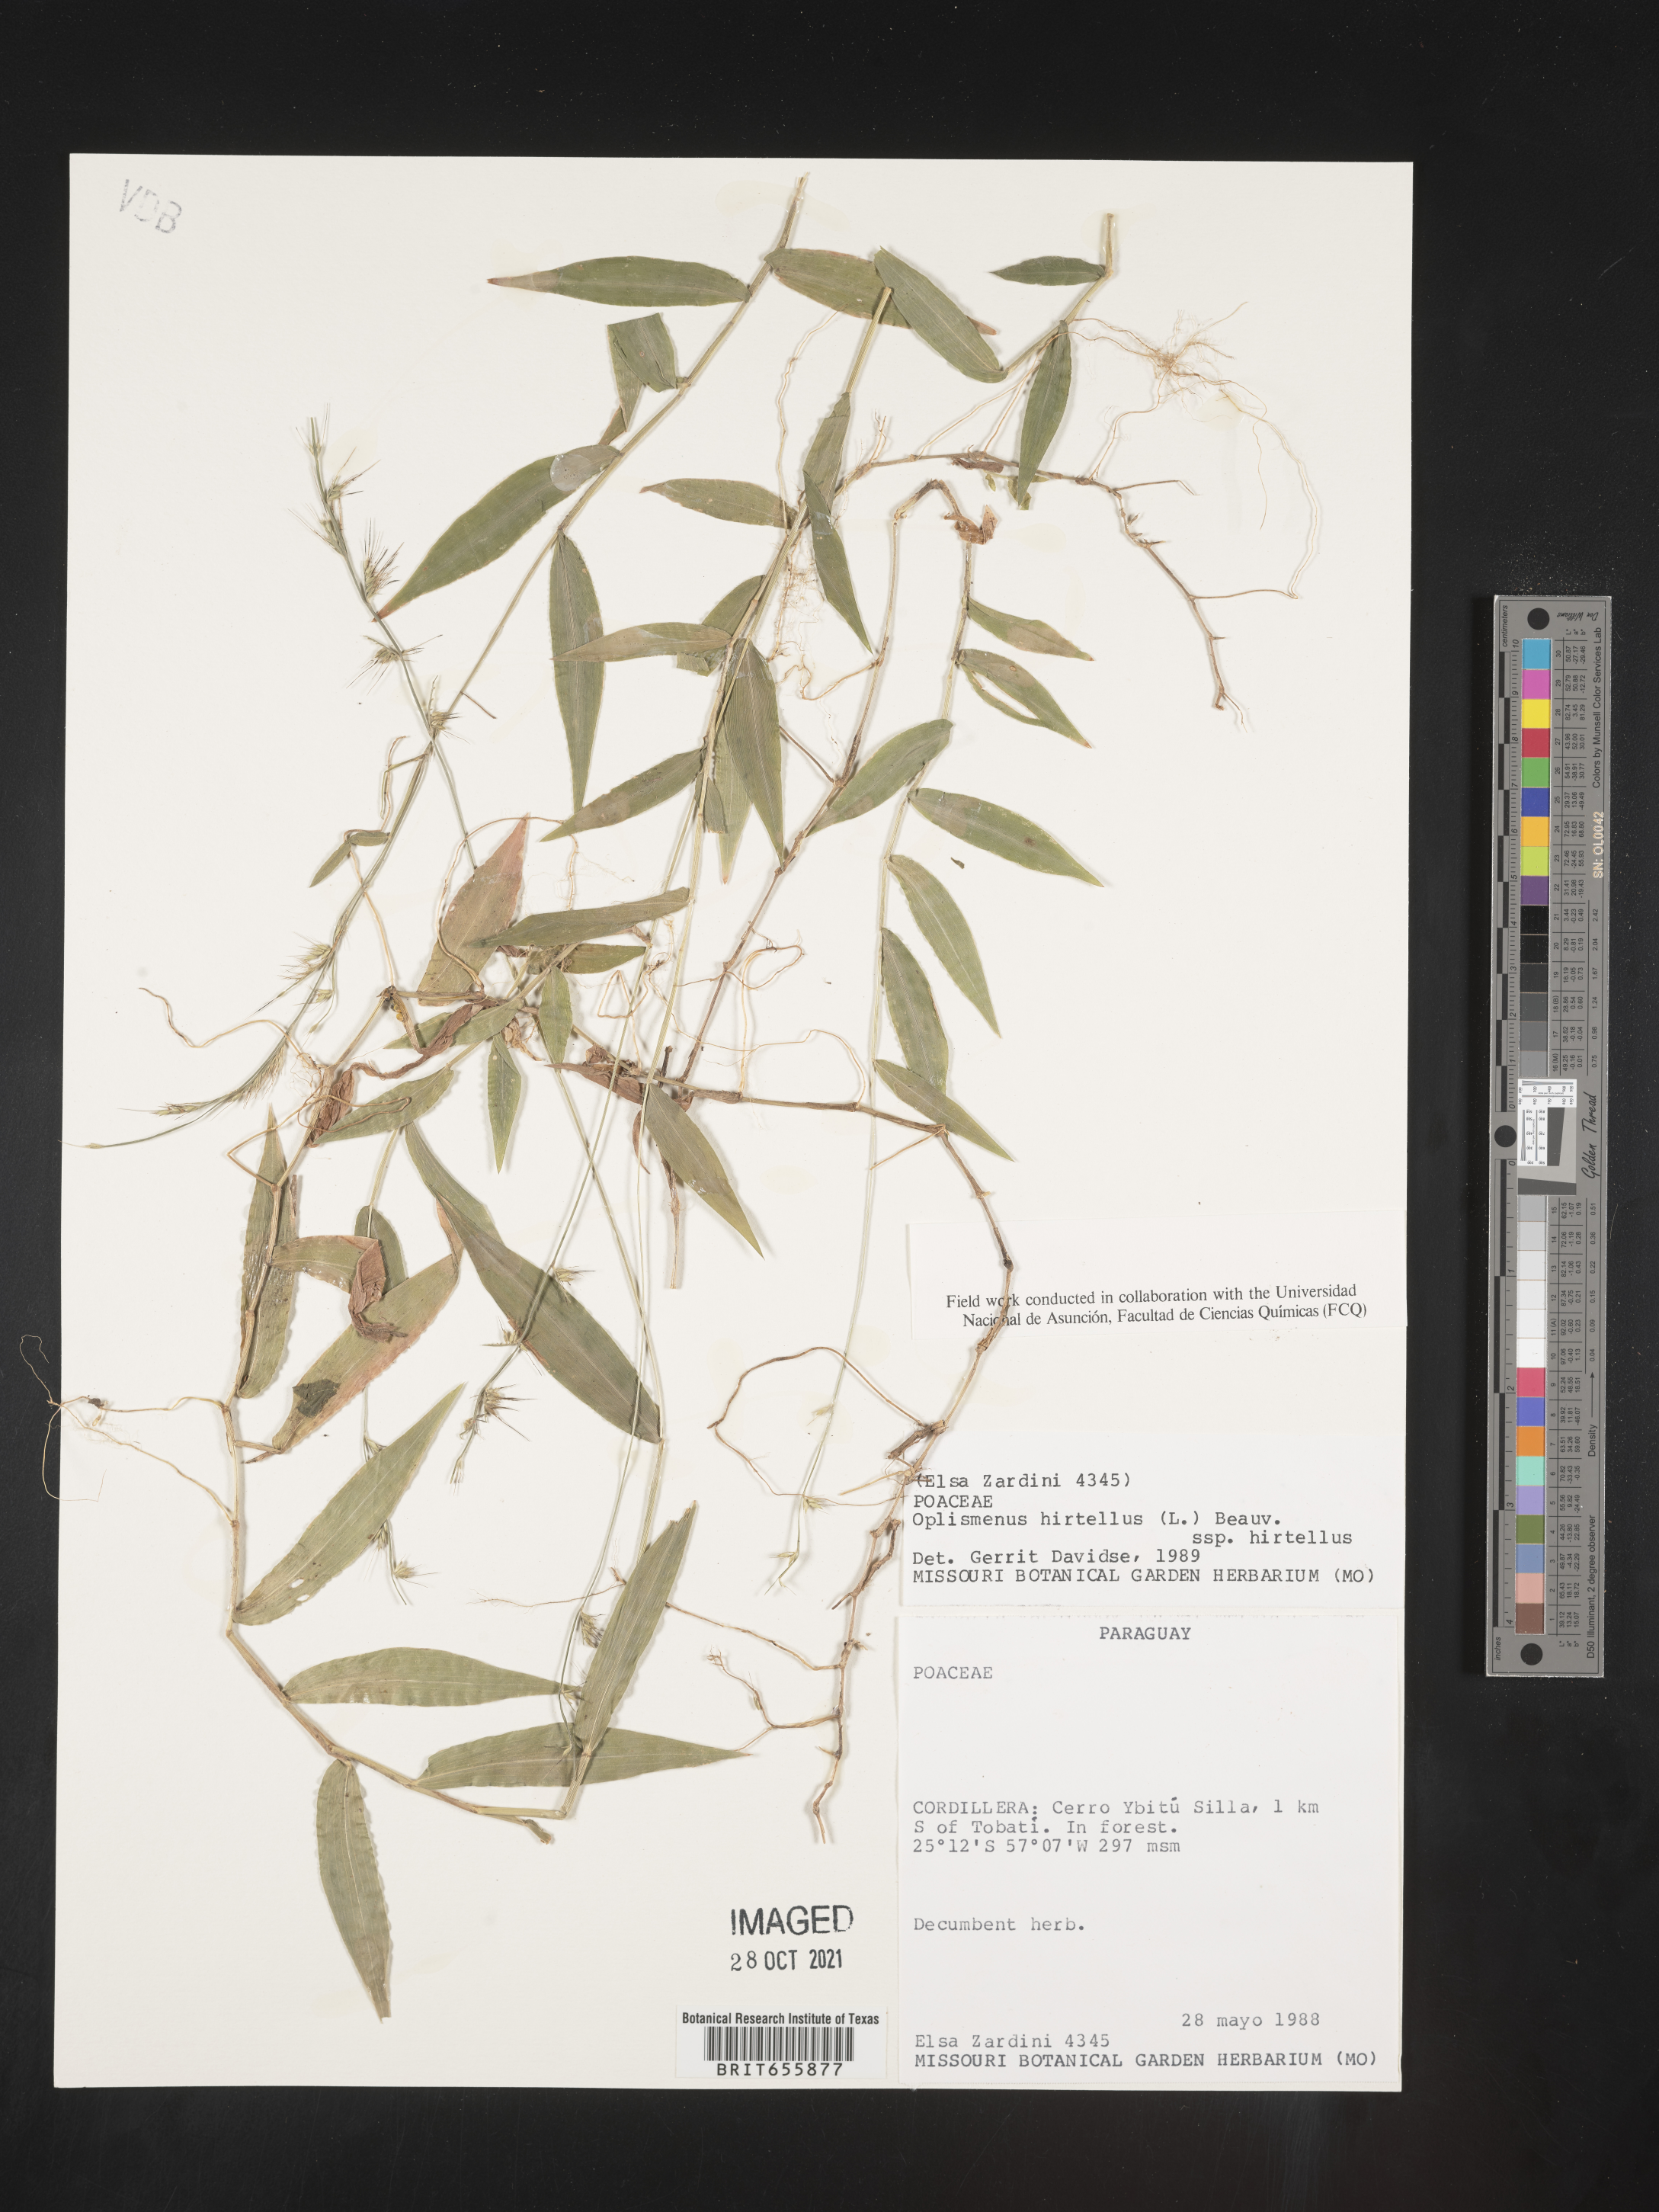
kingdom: Plantae
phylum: Tracheophyta
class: Liliopsida
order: Poales
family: Poaceae
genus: Oplismenus
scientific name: Oplismenus
